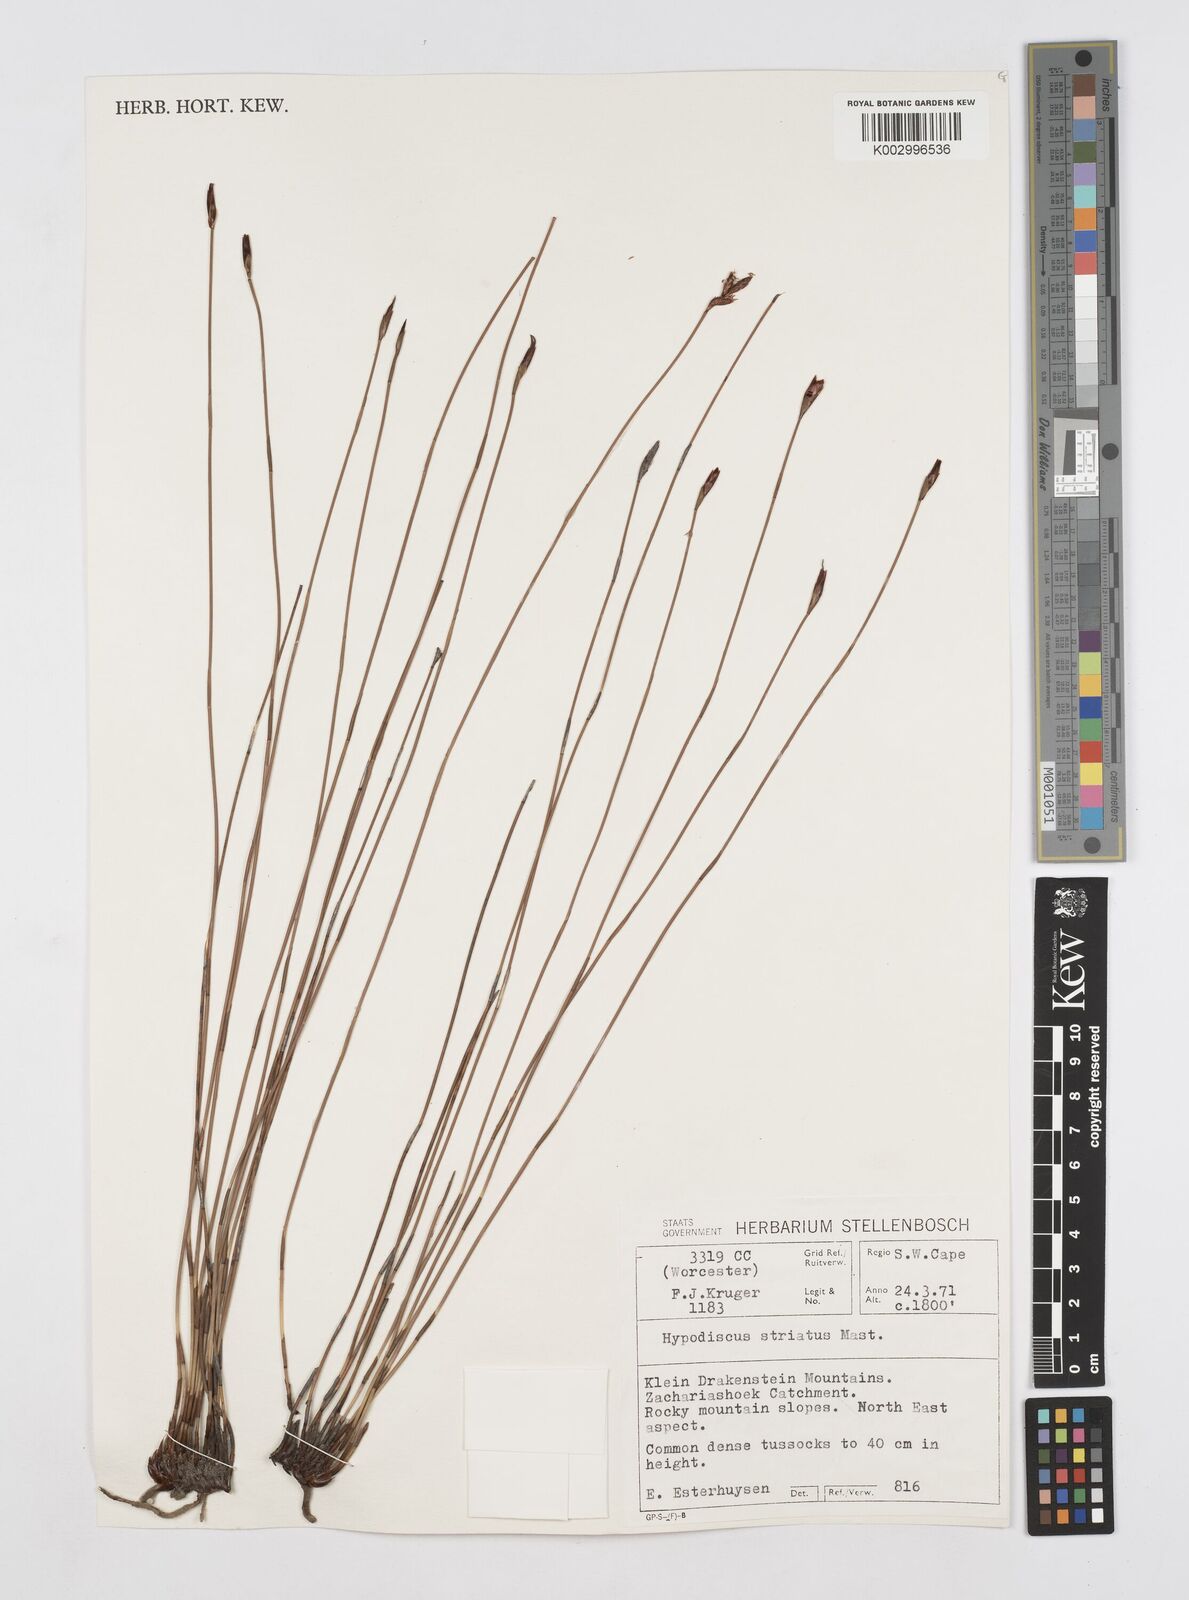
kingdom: Plantae
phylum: Tracheophyta
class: Liliopsida
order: Poales
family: Restionaceae
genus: Hypodiscus
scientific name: Hypodiscus striatus
